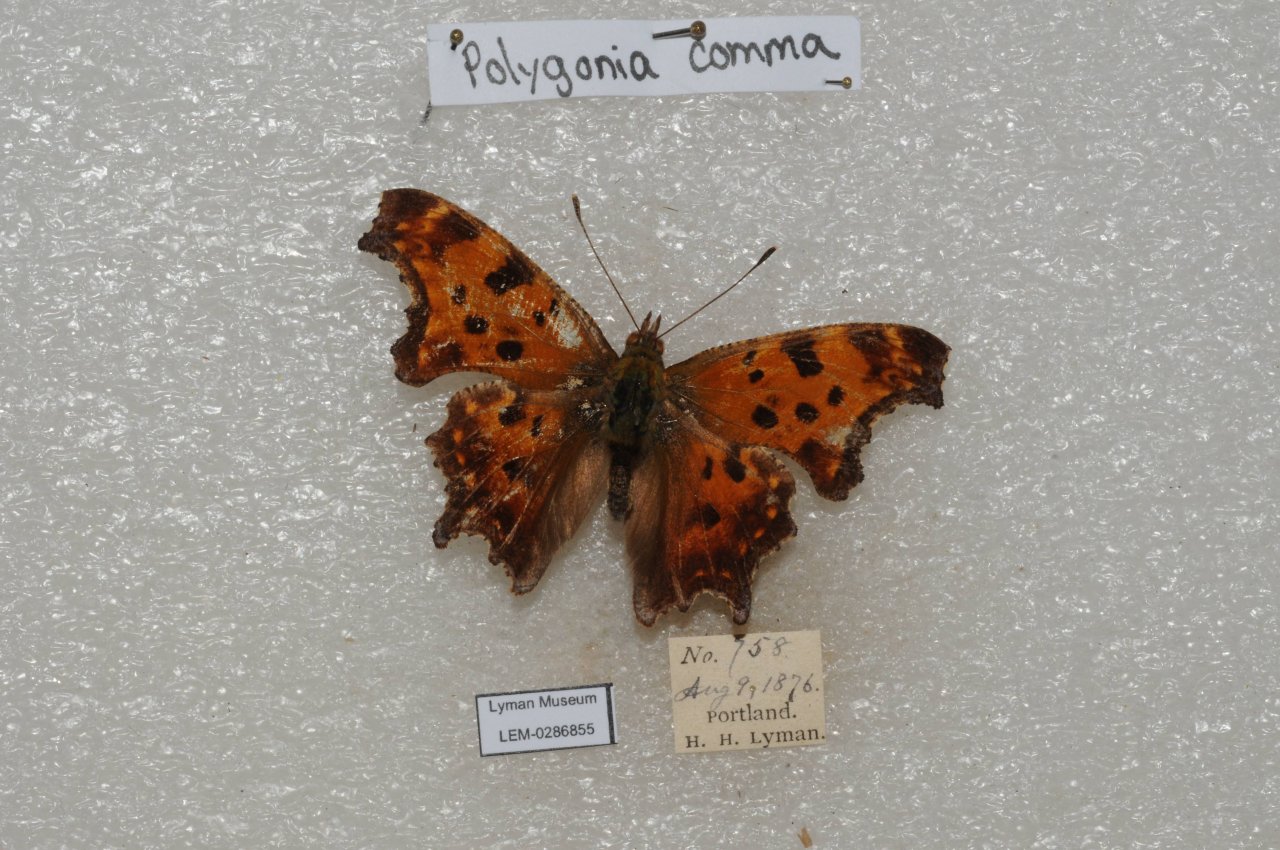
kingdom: Animalia
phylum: Arthropoda
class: Insecta
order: Lepidoptera
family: Nymphalidae
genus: Polygonia
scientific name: Polygonia comma
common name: Eastern Comma
